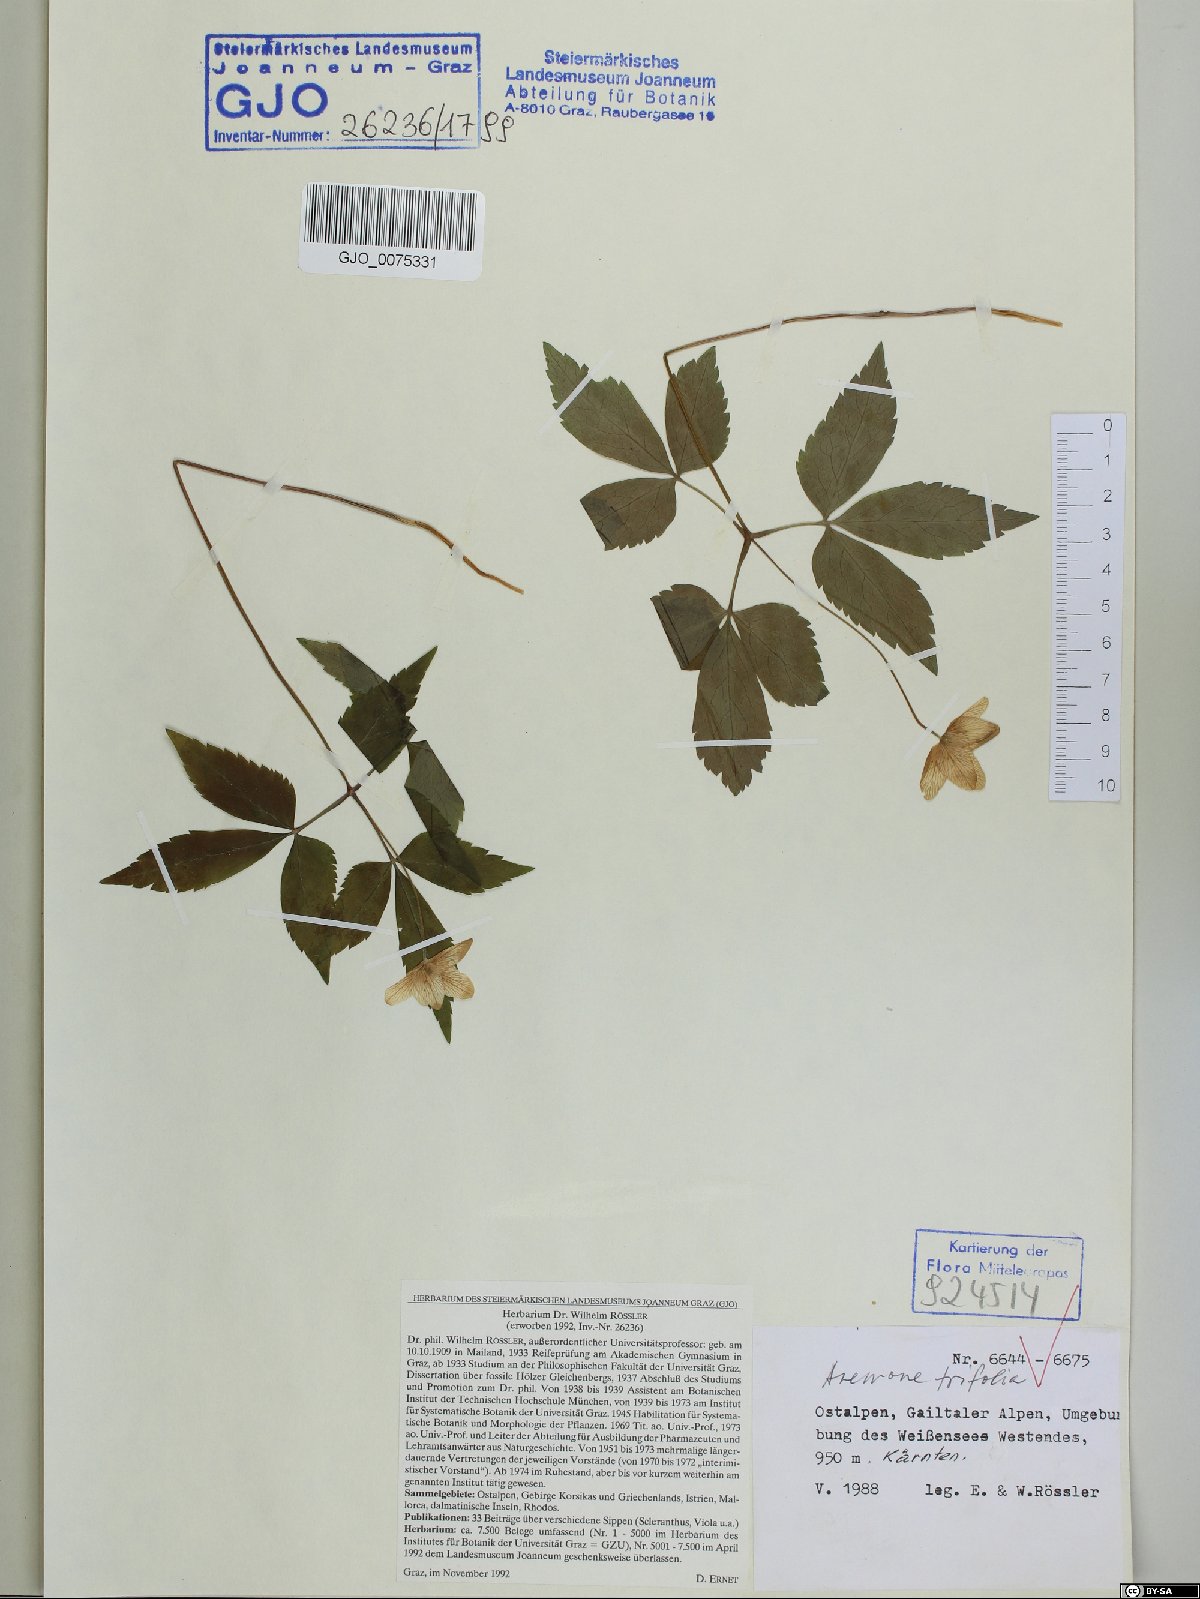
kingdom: Plantae
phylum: Tracheophyta
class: Magnoliopsida
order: Ranunculales
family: Ranunculaceae
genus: Anemone
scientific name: Anemone trifolia
